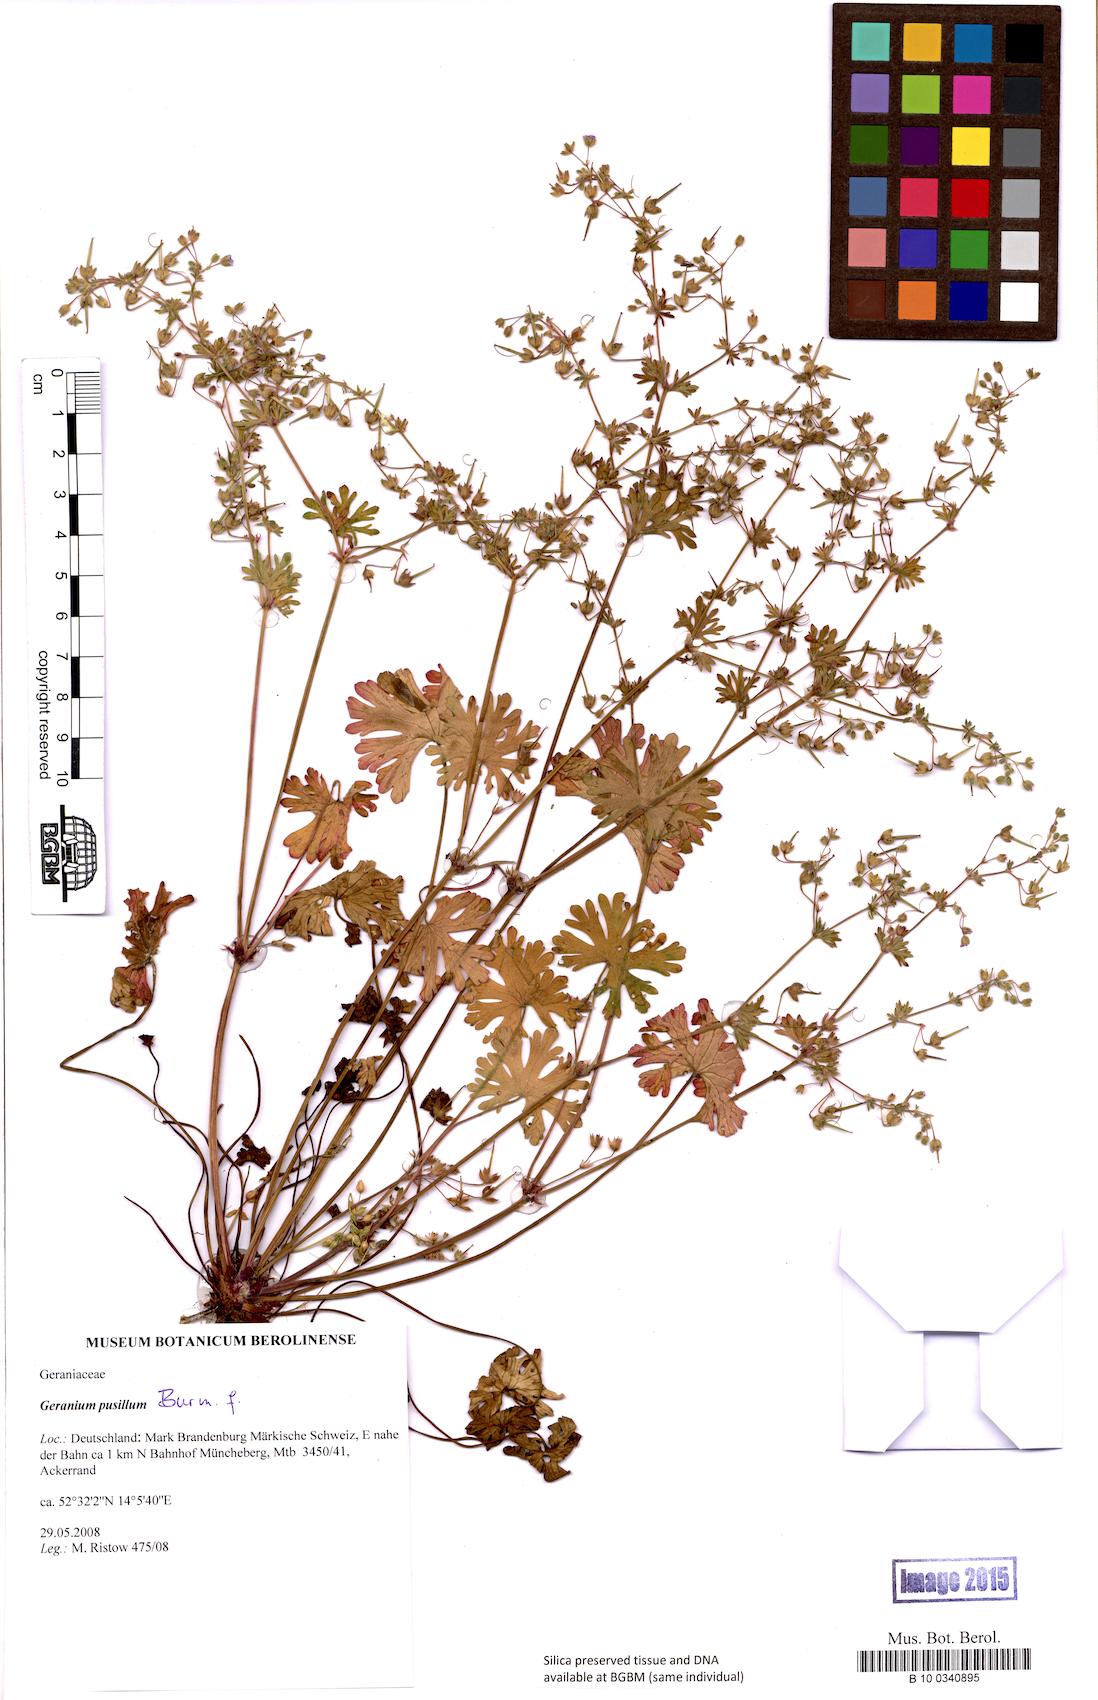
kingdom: Plantae
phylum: Tracheophyta
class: Magnoliopsida
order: Geraniales
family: Geraniaceae
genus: Geranium
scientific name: Geranium pusillum
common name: Small geranium
